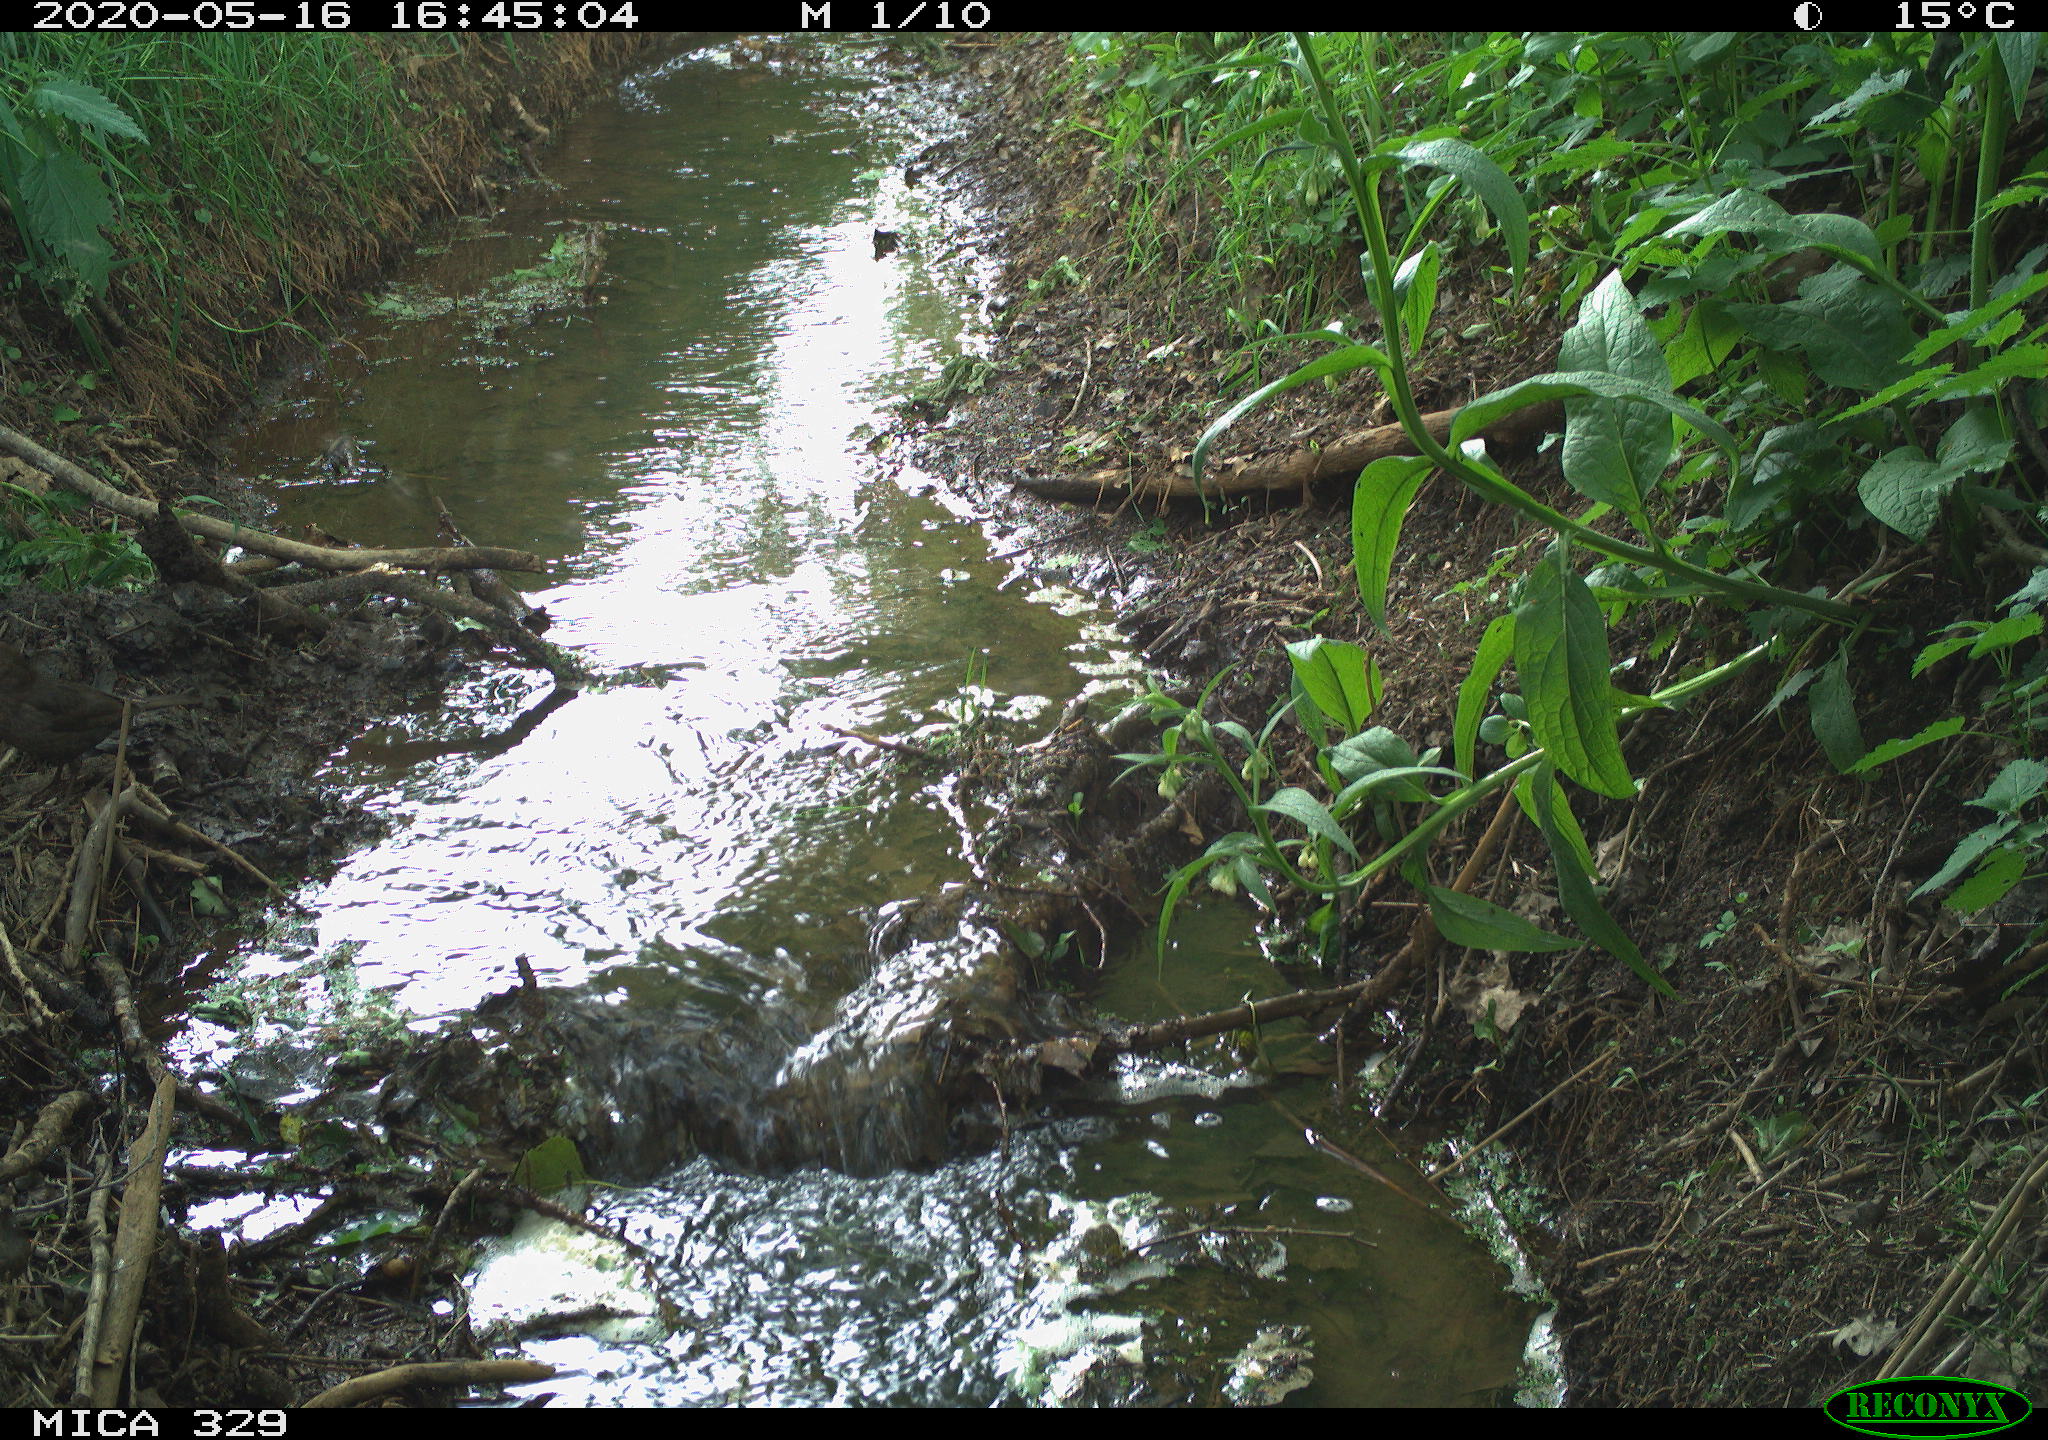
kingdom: Animalia
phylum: Chordata
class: Aves
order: Passeriformes
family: Turdidae
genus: Turdus
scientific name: Turdus merula
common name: Common blackbird
